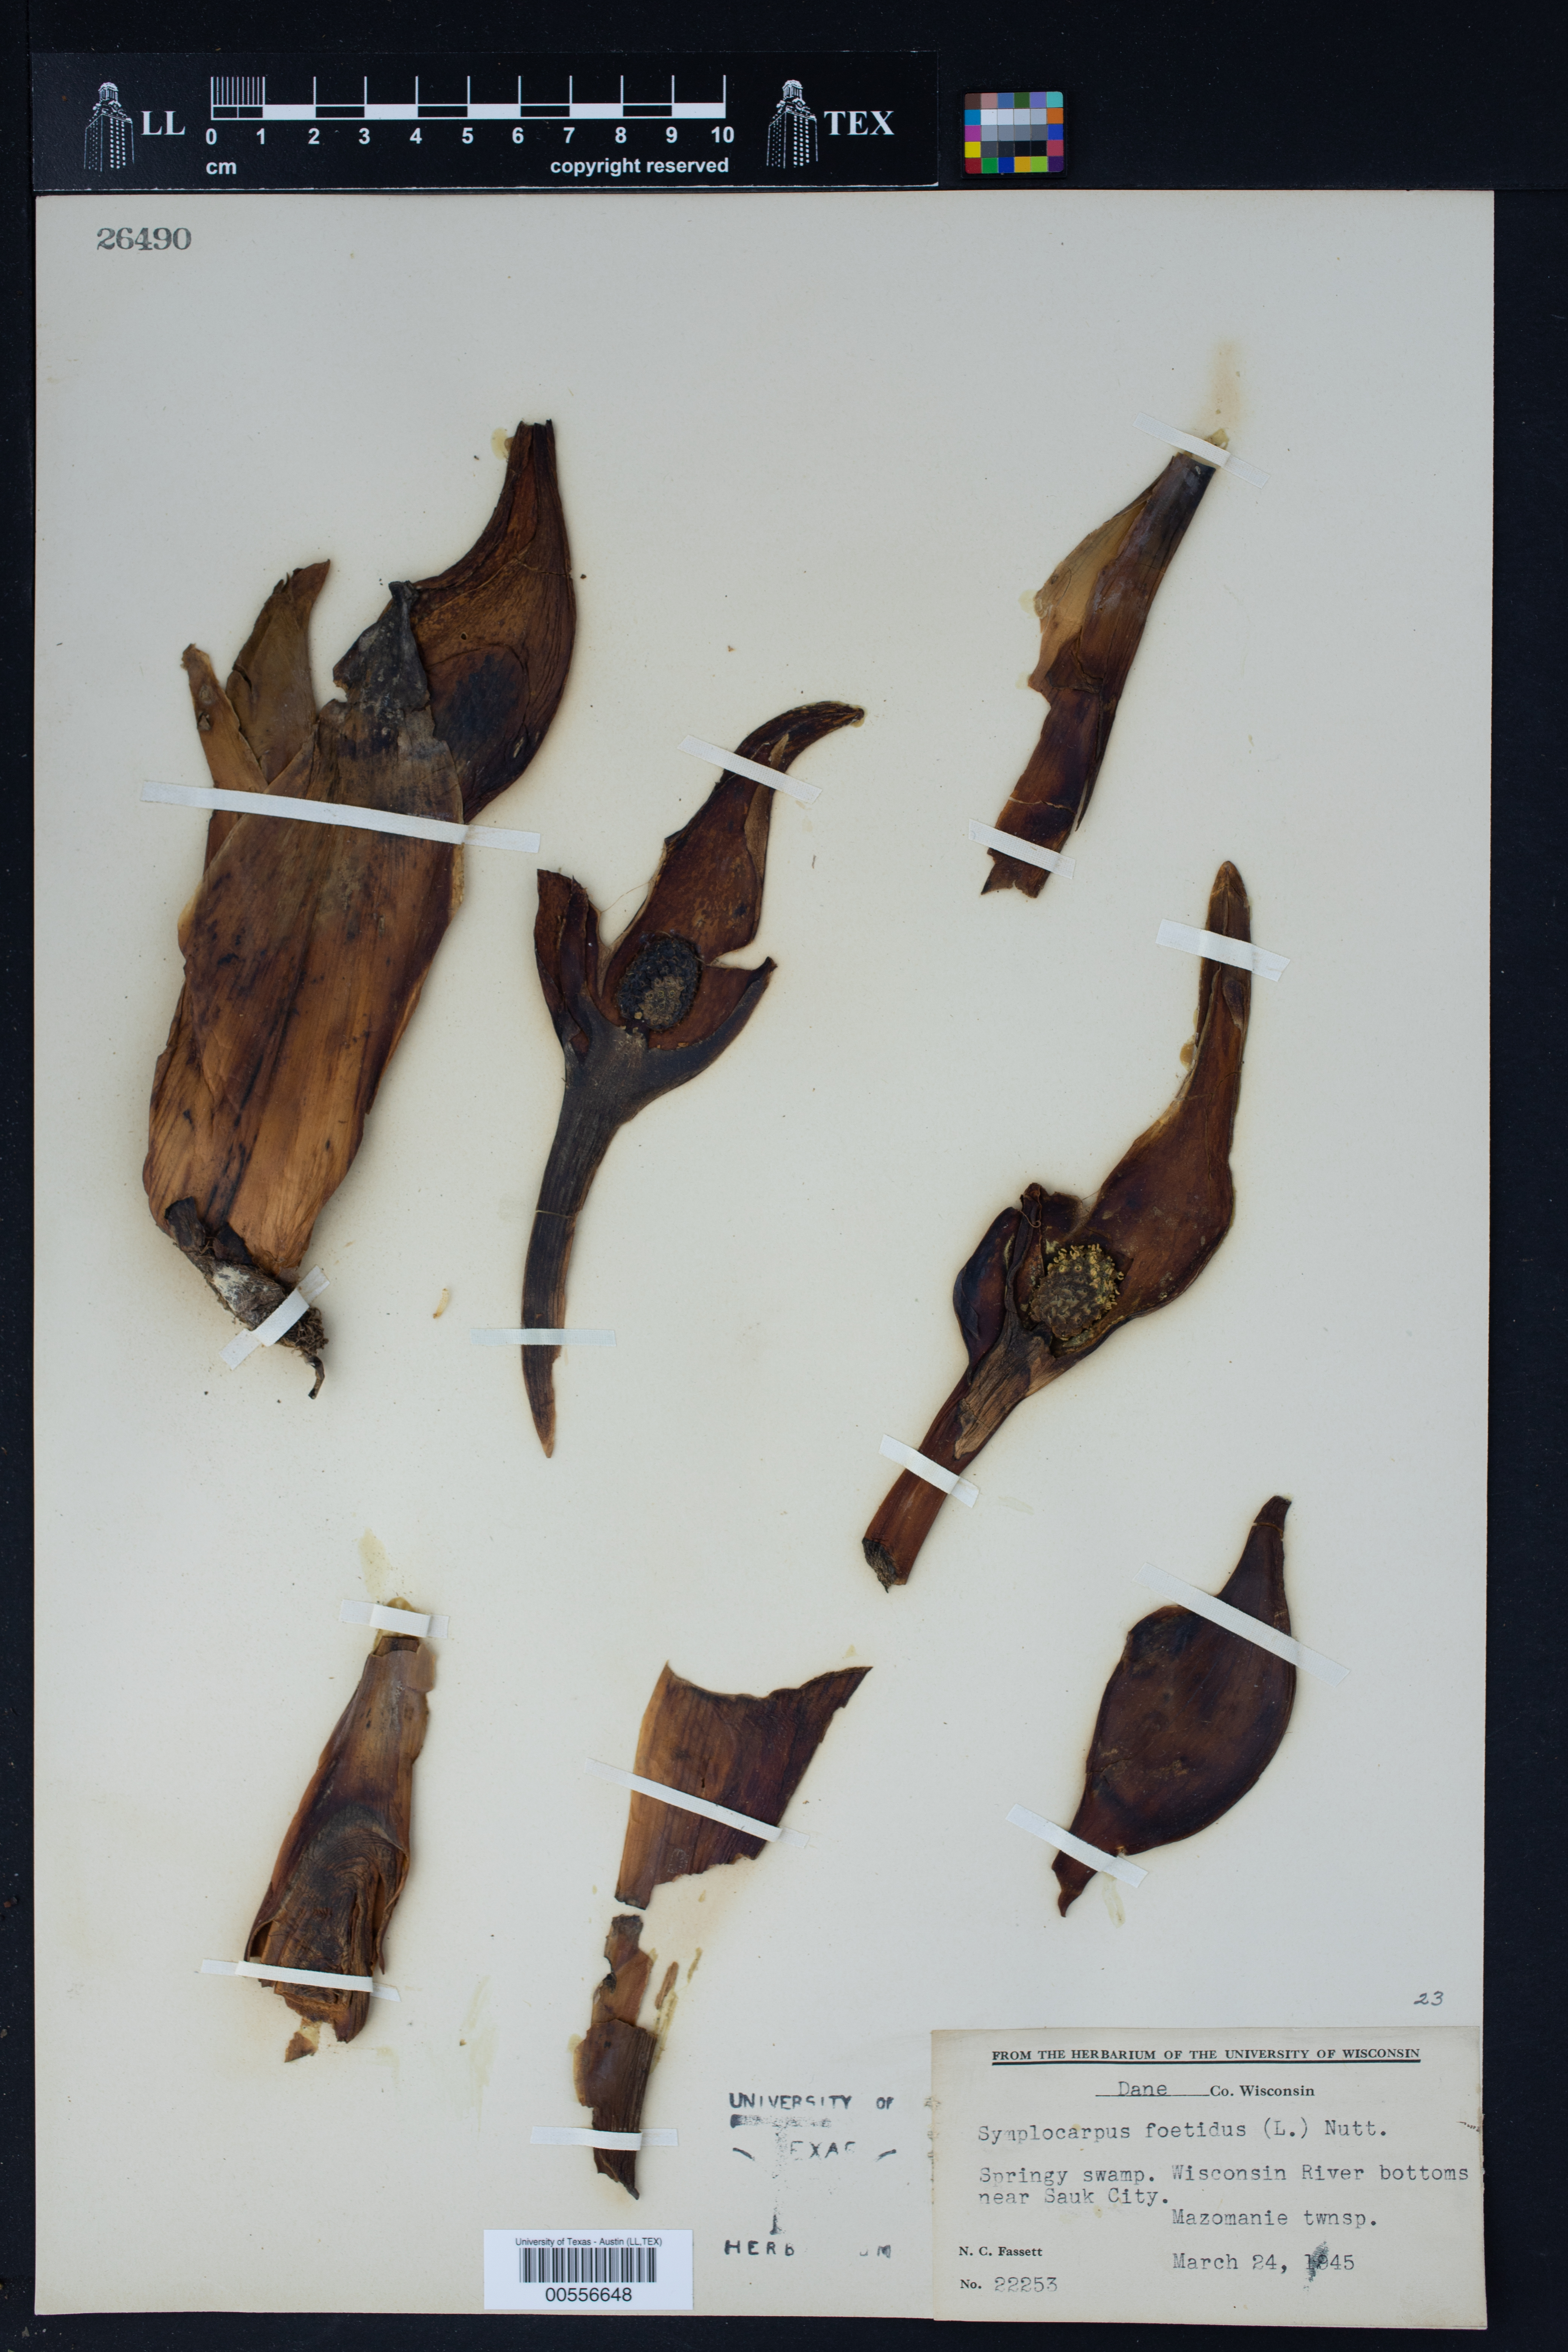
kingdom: Plantae
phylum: Tracheophyta
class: Liliopsida
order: Alismatales
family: Araceae
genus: Symplocarpus
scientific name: Symplocarpus foetidus
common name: Eastern skunk cabbage
